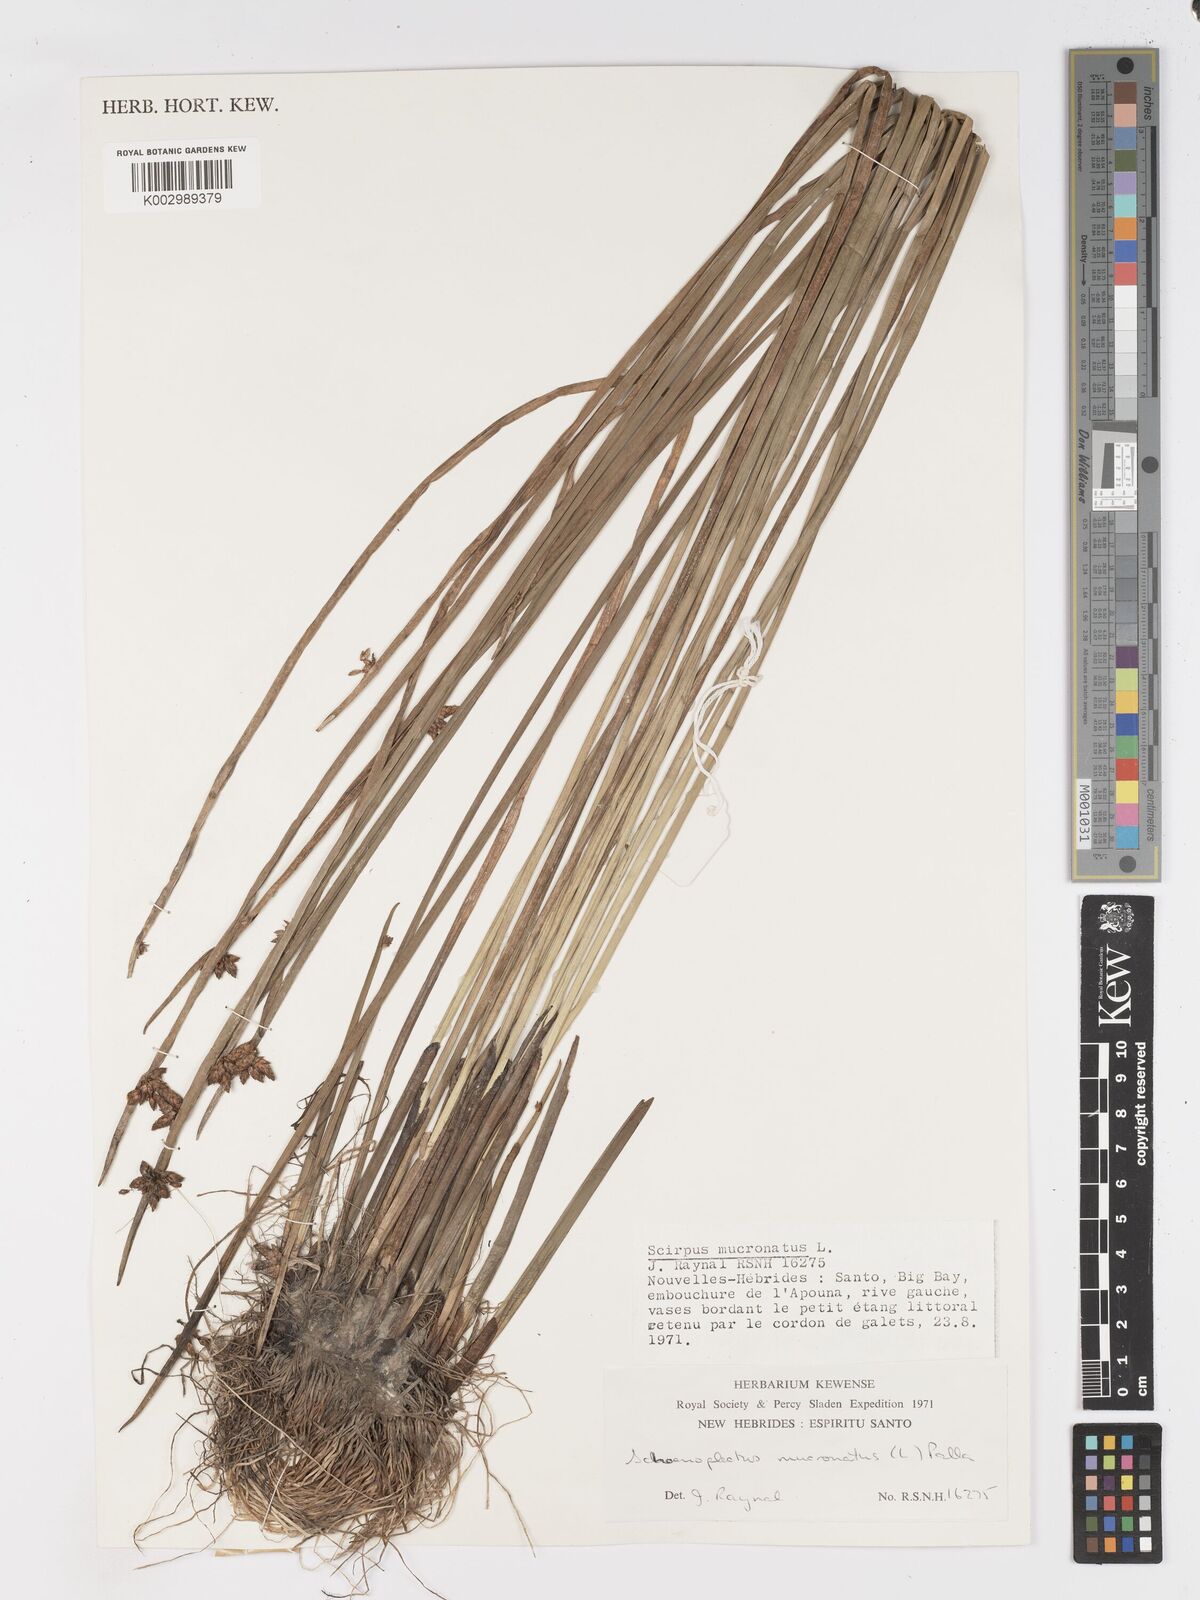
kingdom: Plantae
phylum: Tracheophyta
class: Liliopsida
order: Poales
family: Cyperaceae
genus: Schoenoplectiella
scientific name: Schoenoplectiella mucronata
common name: Bog bulrush
